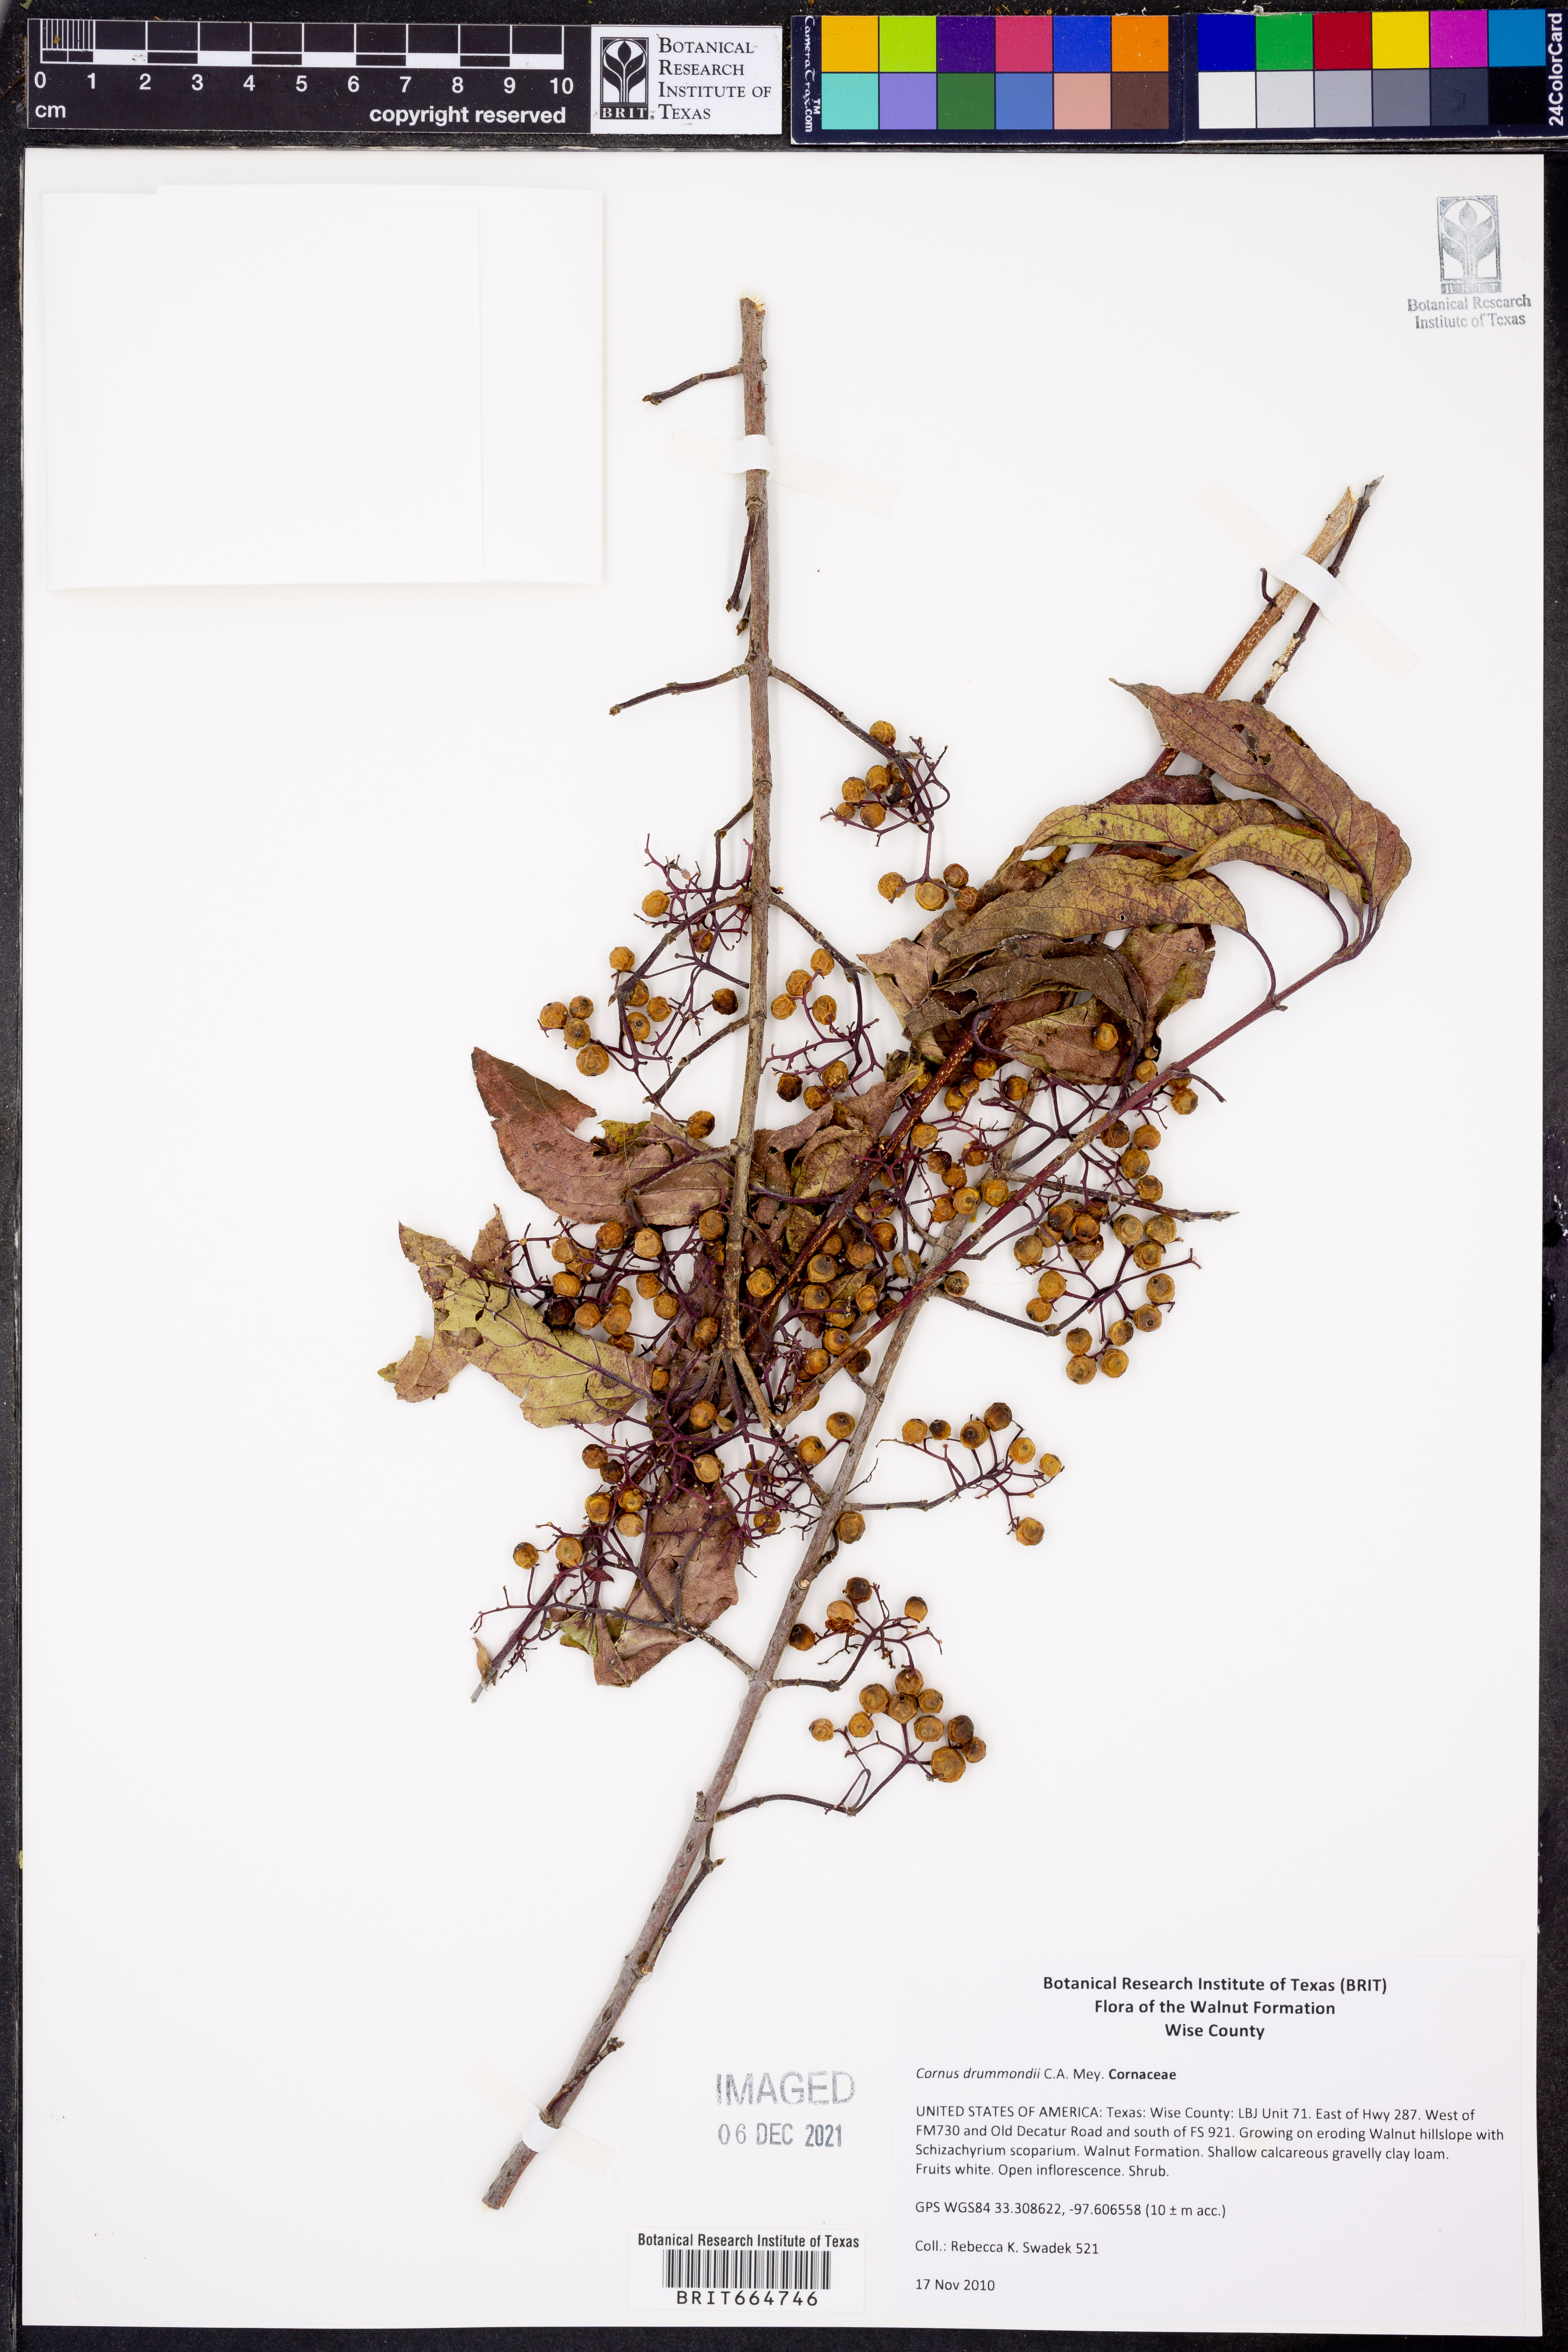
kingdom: Plantae
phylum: Tracheophyta
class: Magnoliopsida
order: Cornales
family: Cornaceae
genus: Cornus
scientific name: Cornus drummondii
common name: Rough-leaf dogwood
